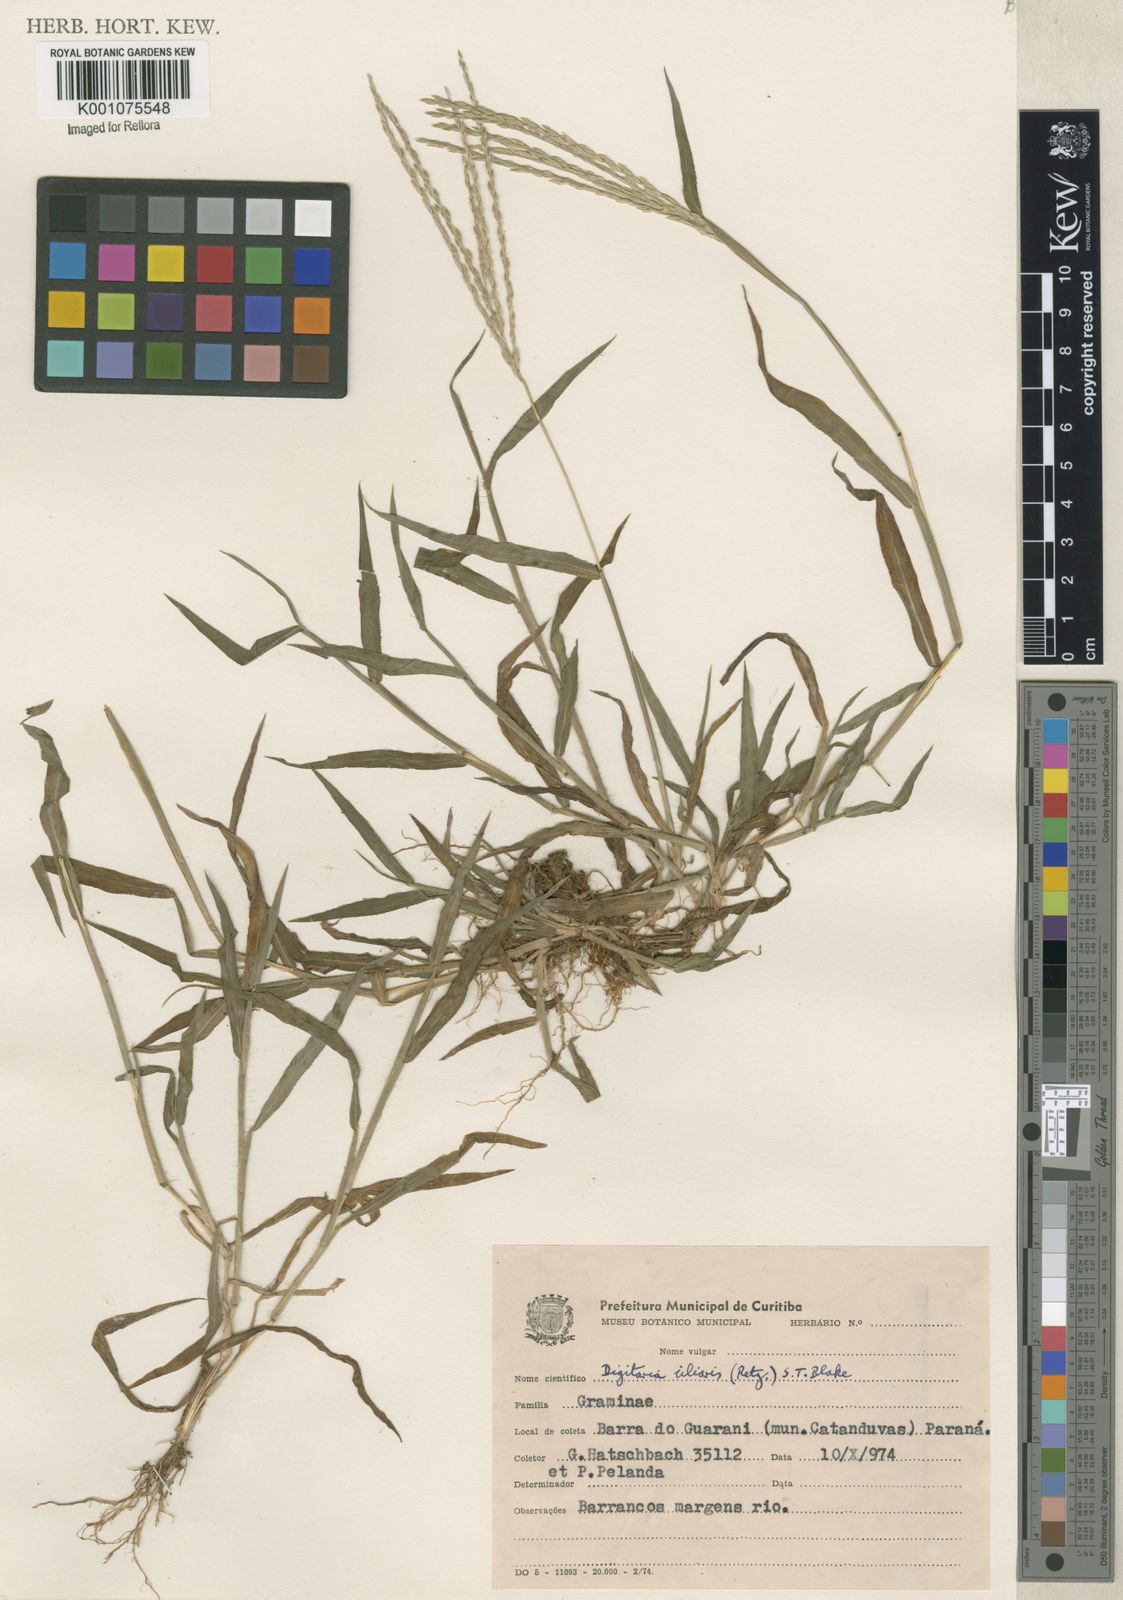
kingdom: Plantae
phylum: Tracheophyta
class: Liliopsida
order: Poales
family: Poaceae
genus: Digitaria
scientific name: Digitaria ciliaris
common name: Tropical finger-grass
